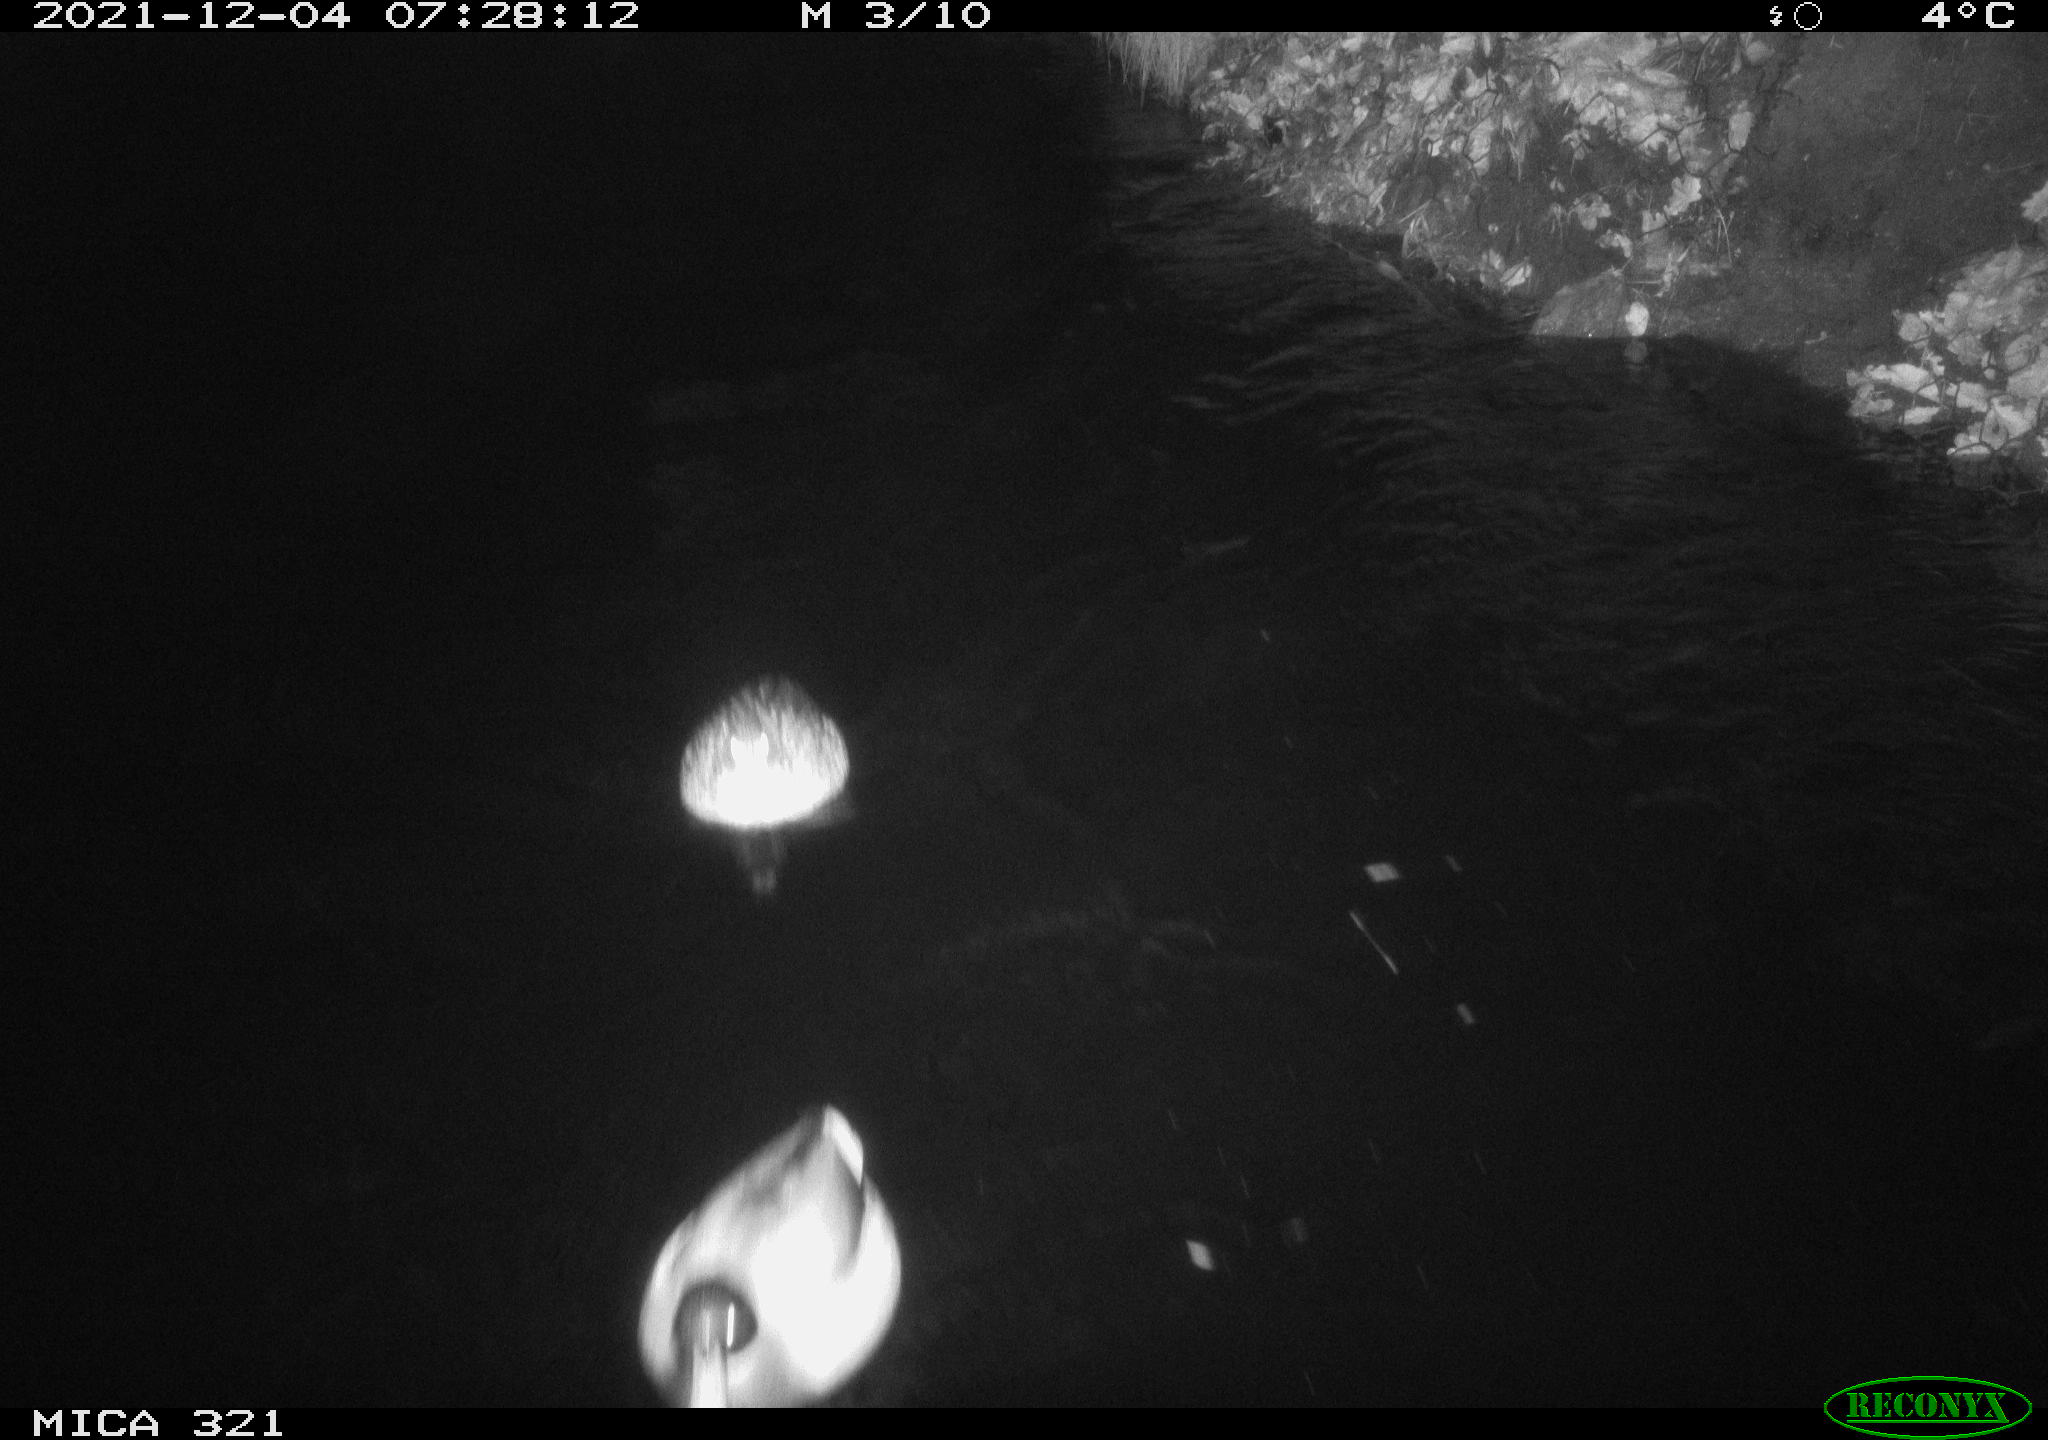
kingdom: Animalia
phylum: Chordata
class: Aves
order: Anseriformes
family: Anatidae
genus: Anas
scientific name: Anas platyrhynchos
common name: Mallard
